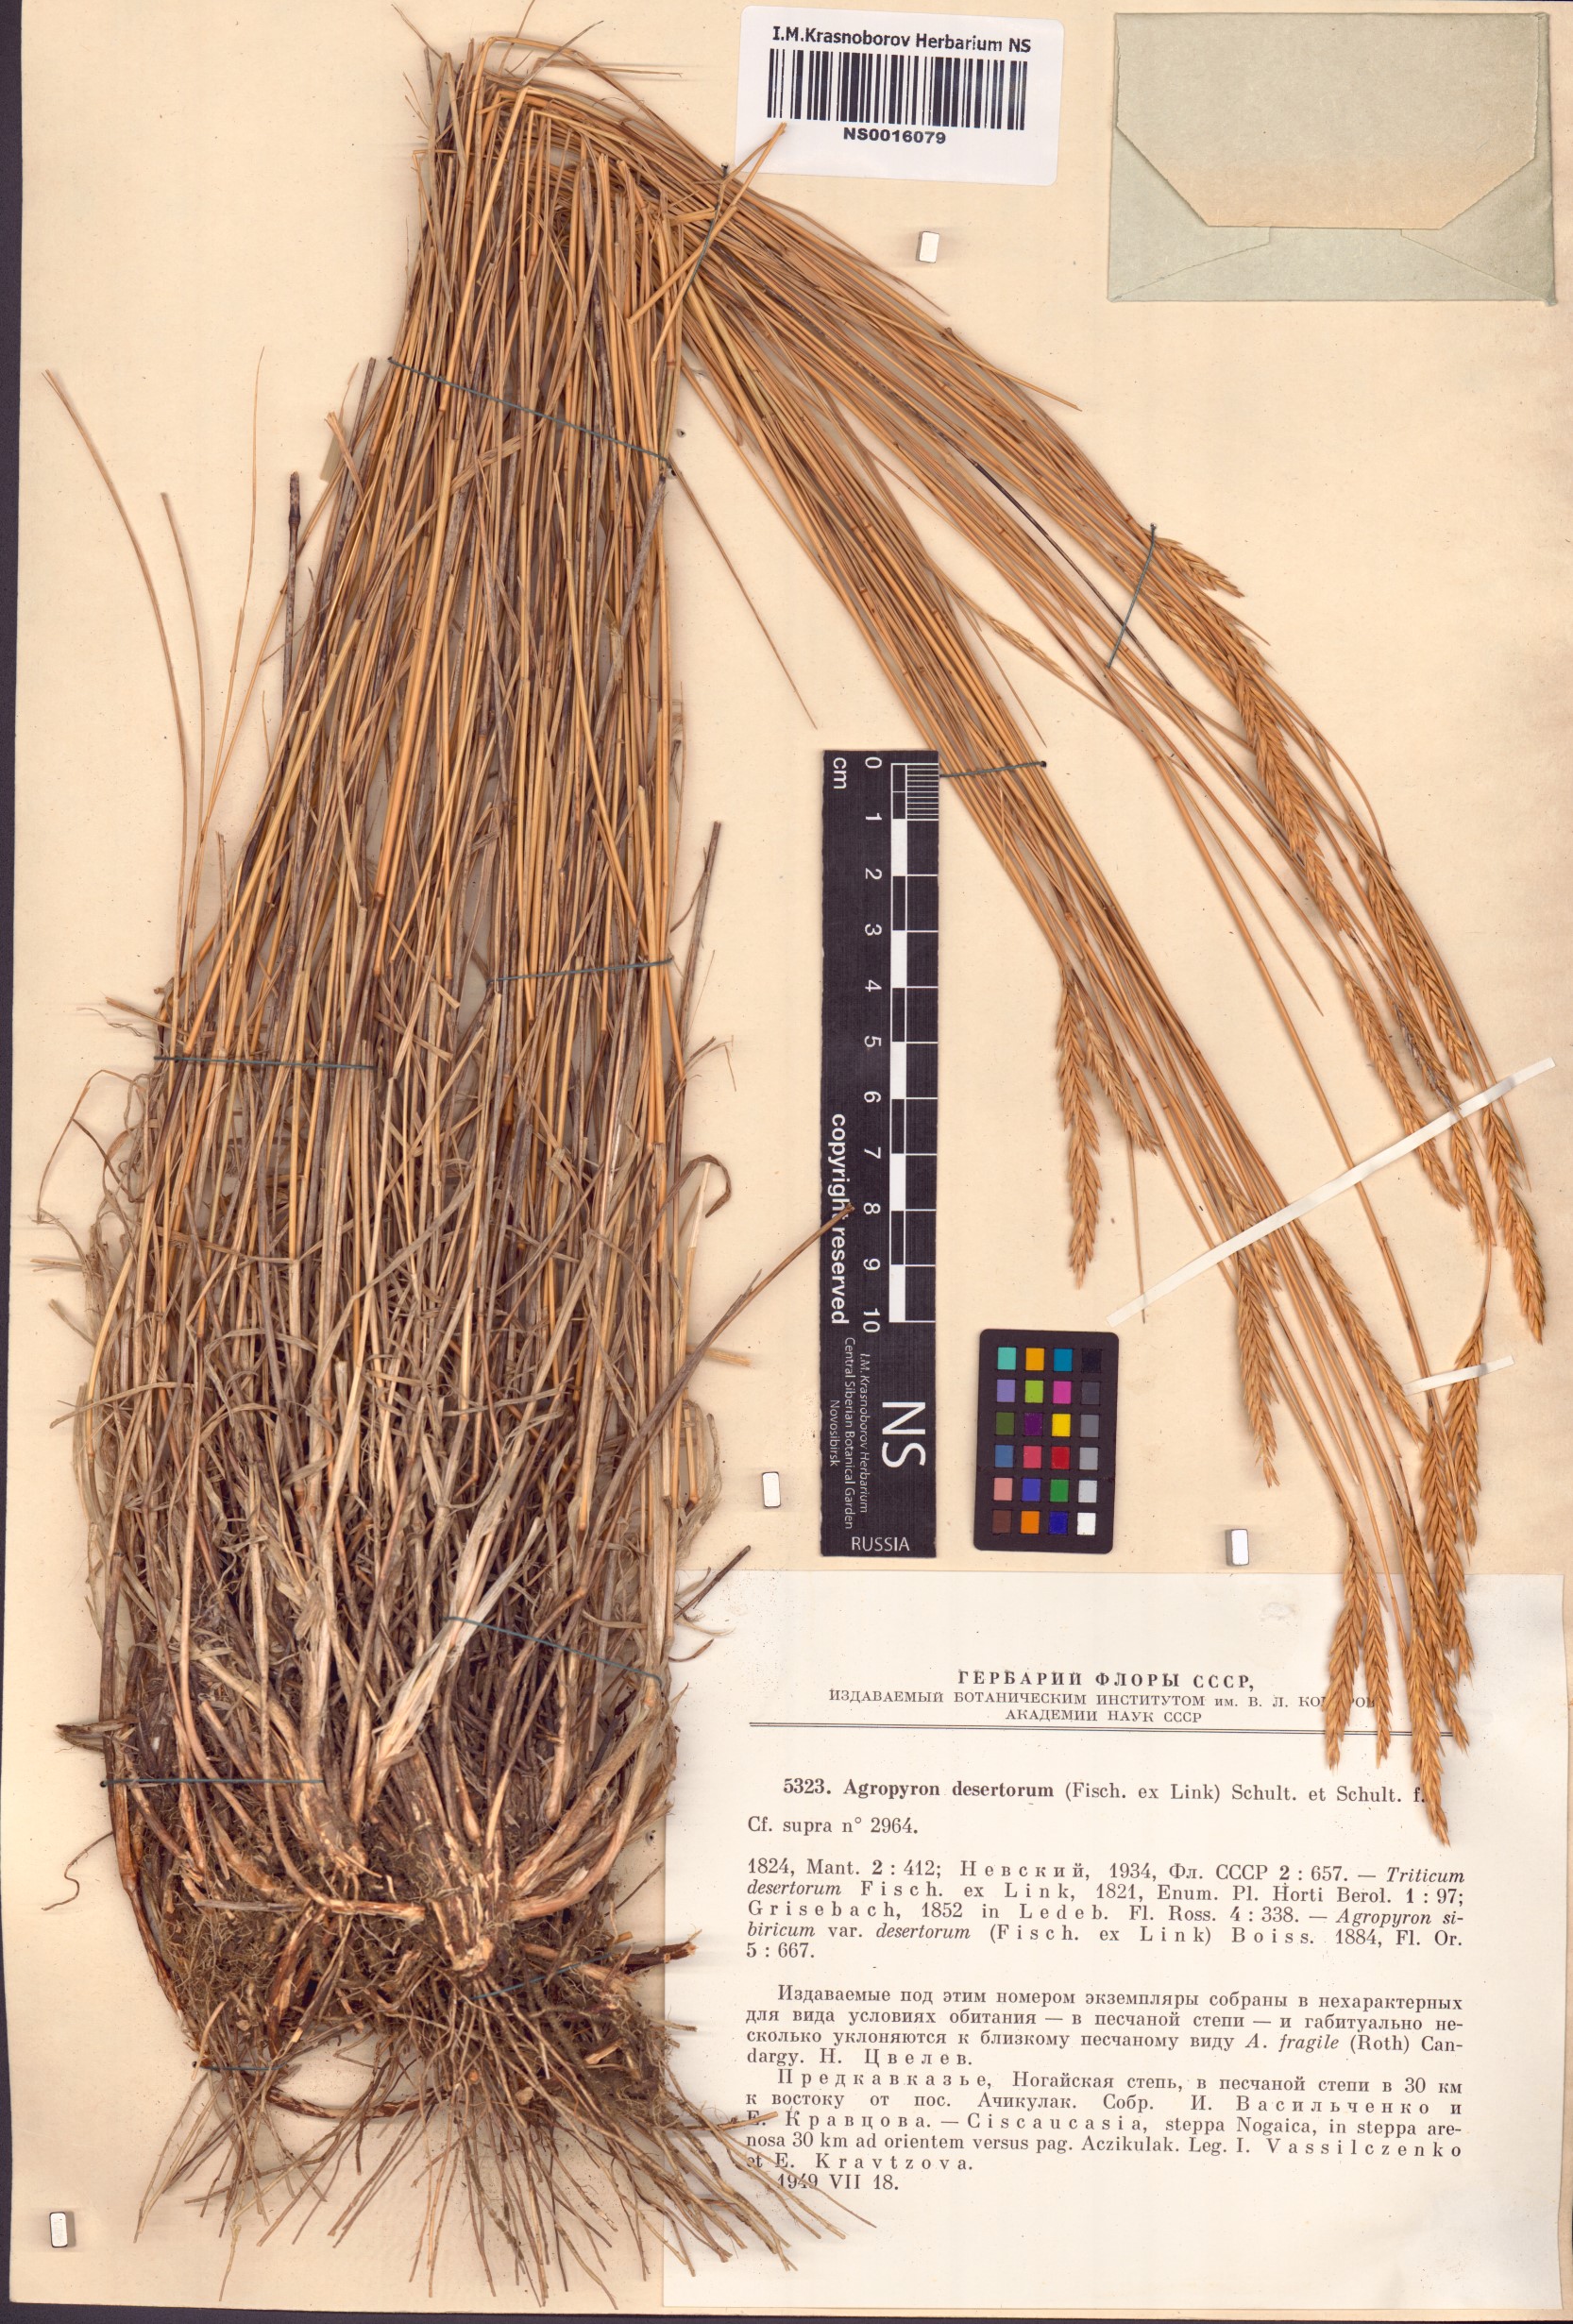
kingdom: Plantae
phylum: Tracheophyta
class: Liliopsida
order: Poales
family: Poaceae
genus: Agropyron
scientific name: Agropyron desertorum
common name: Desert wheatgrass
